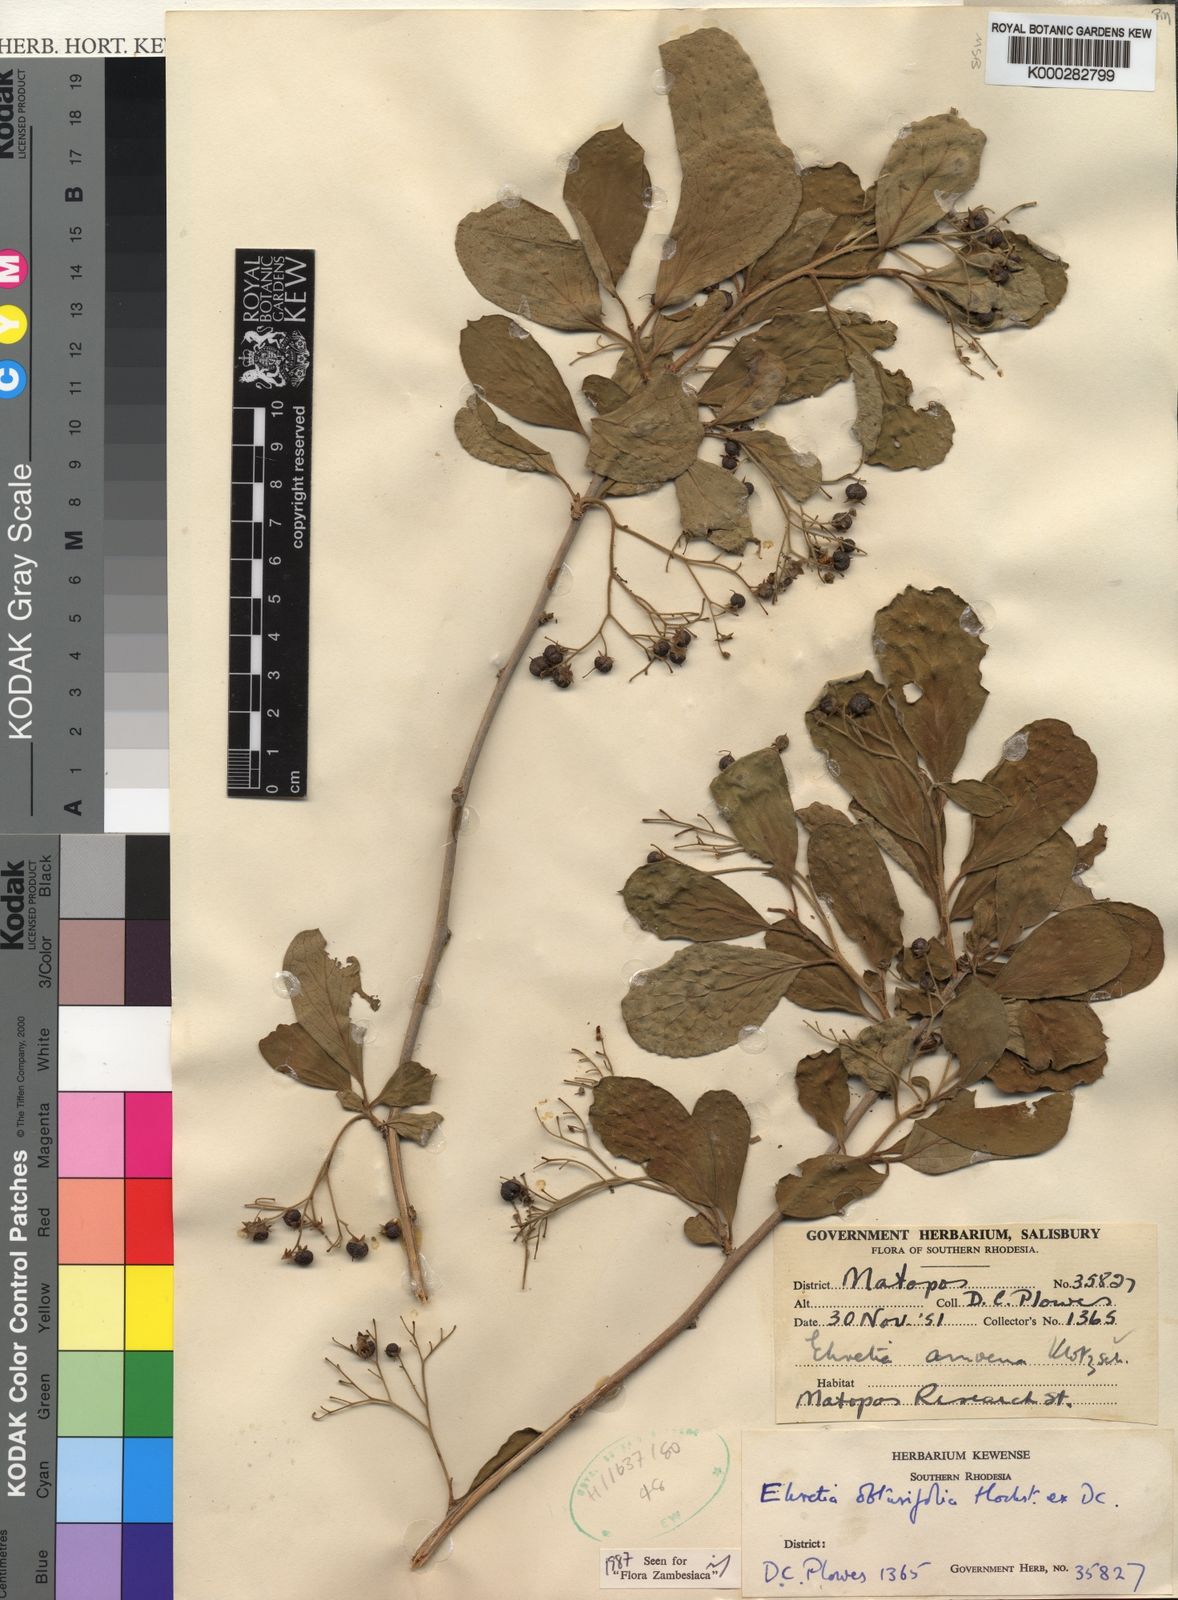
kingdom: Plantae
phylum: Tracheophyta
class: Magnoliopsida
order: Boraginales
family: Ehretiaceae
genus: Ehretia
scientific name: Ehretia obtusifolia
